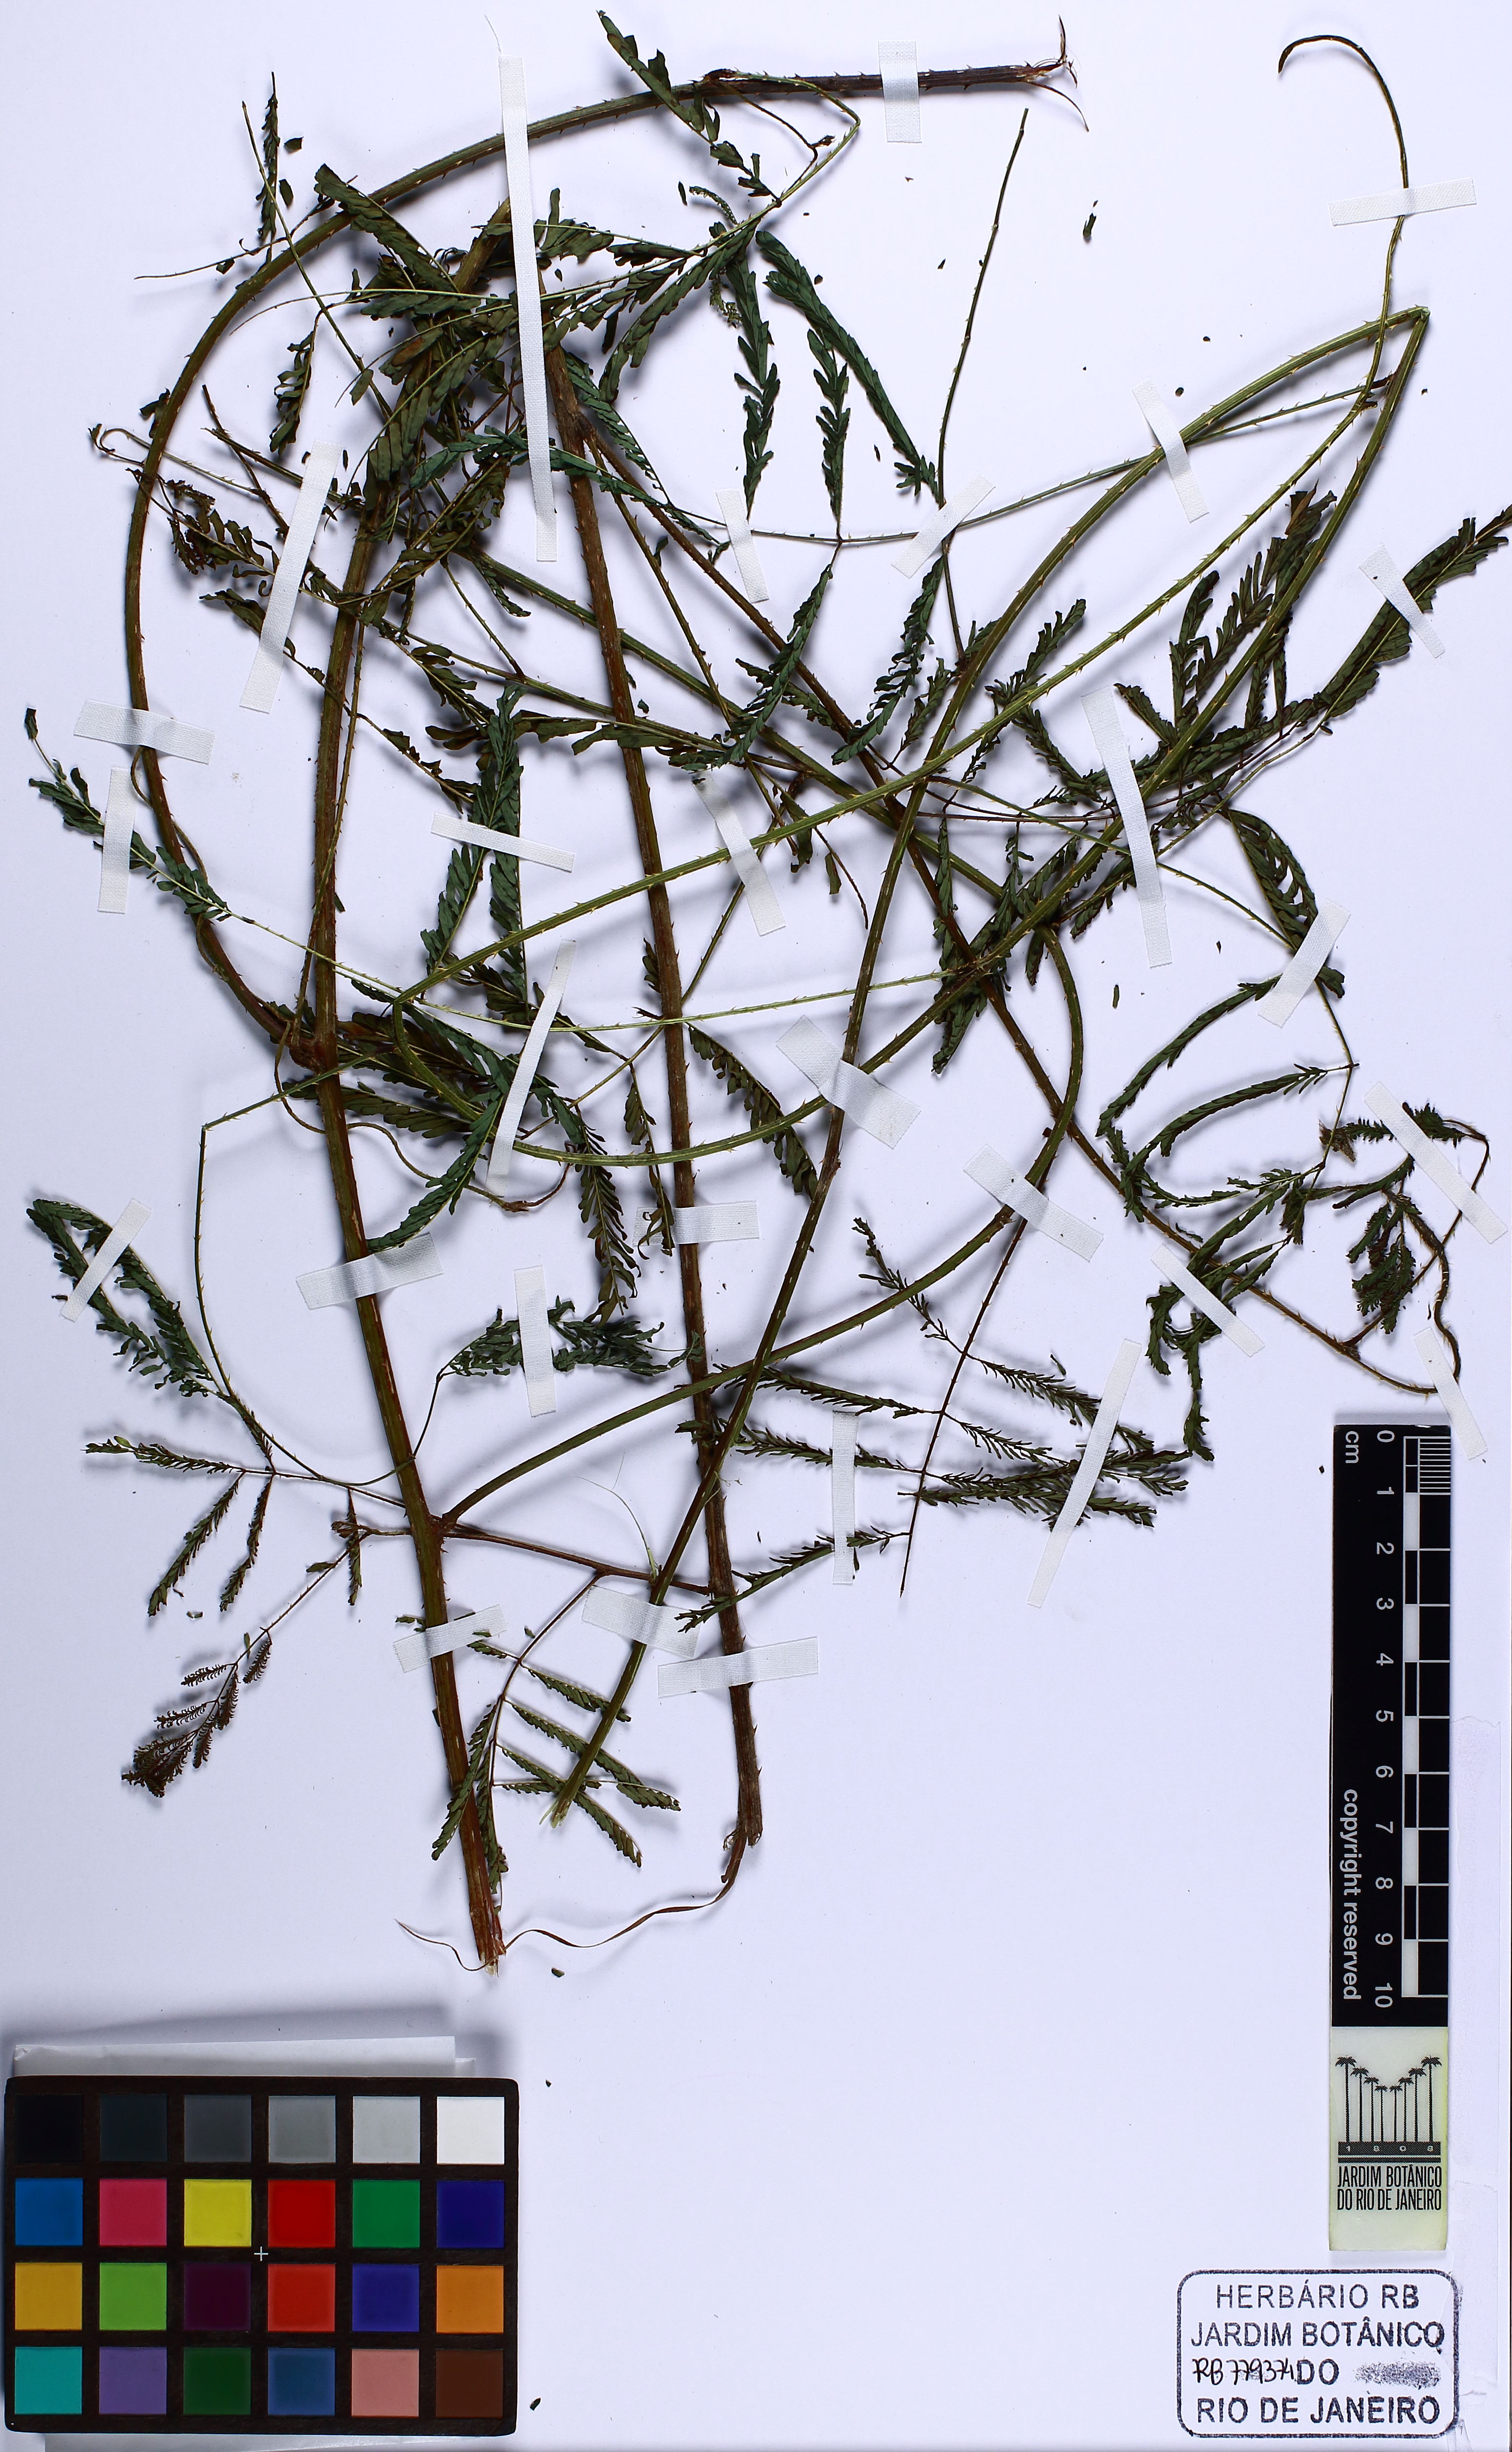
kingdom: Plantae
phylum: Tracheophyta
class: Magnoliopsida
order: Fabales
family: Fabaceae
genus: Mimosa
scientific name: Mimosa selloi
